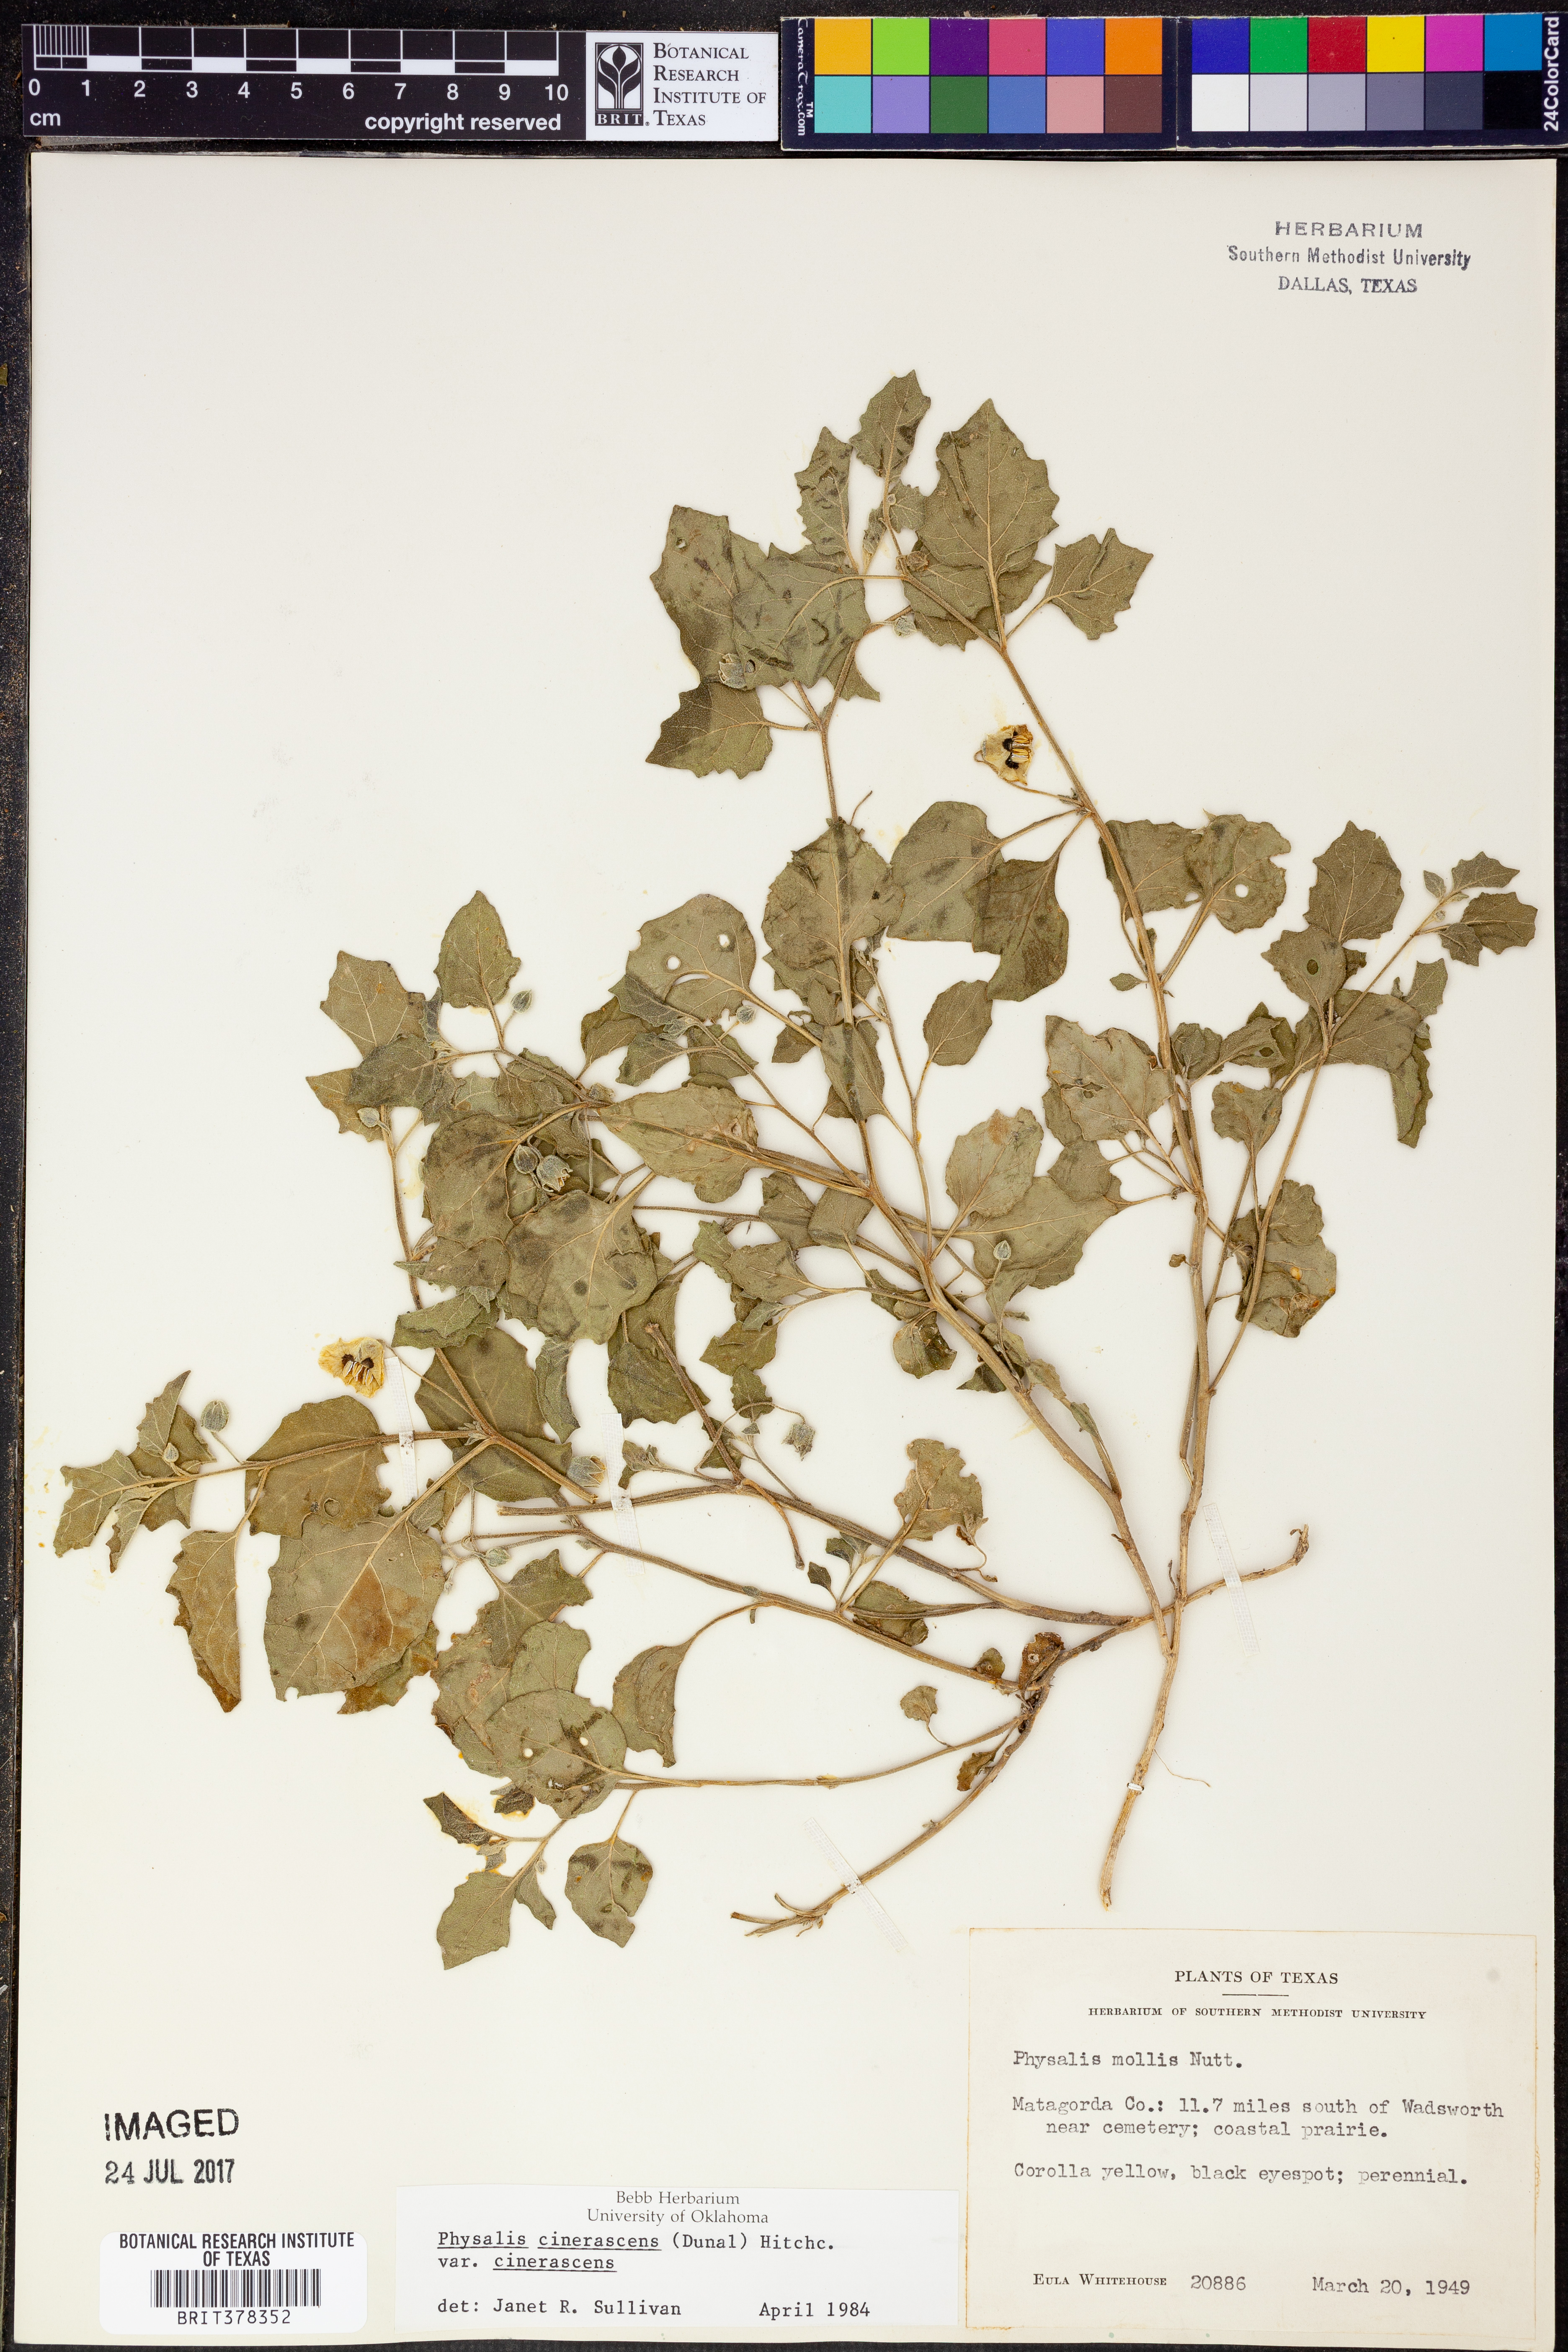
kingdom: Plantae
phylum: Tracheophyta
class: Magnoliopsida
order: Solanales
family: Solanaceae
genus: Physalis
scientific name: Physalis cinerascens
